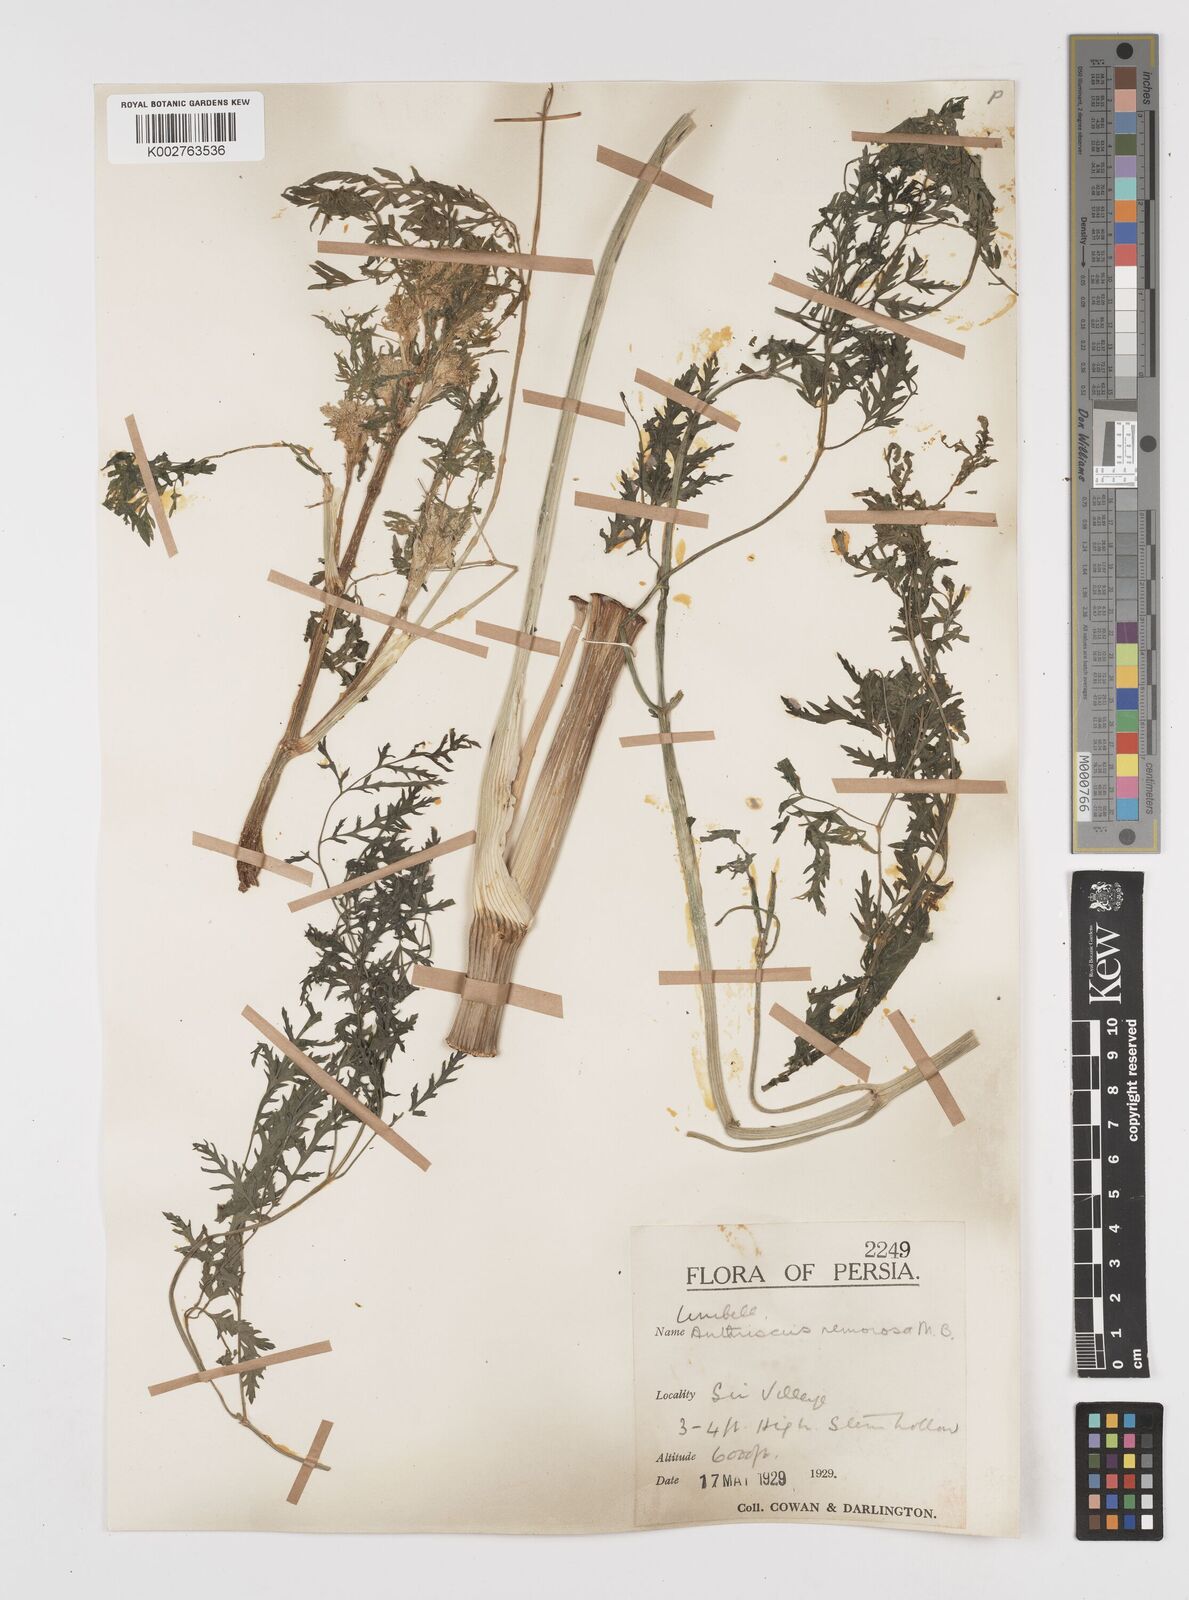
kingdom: Plantae
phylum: Tracheophyta
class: Magnoliopsida
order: Apiales
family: Apiaceae
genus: Anthriscus
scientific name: Anthriscus sylvestris
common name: Cow parsley
